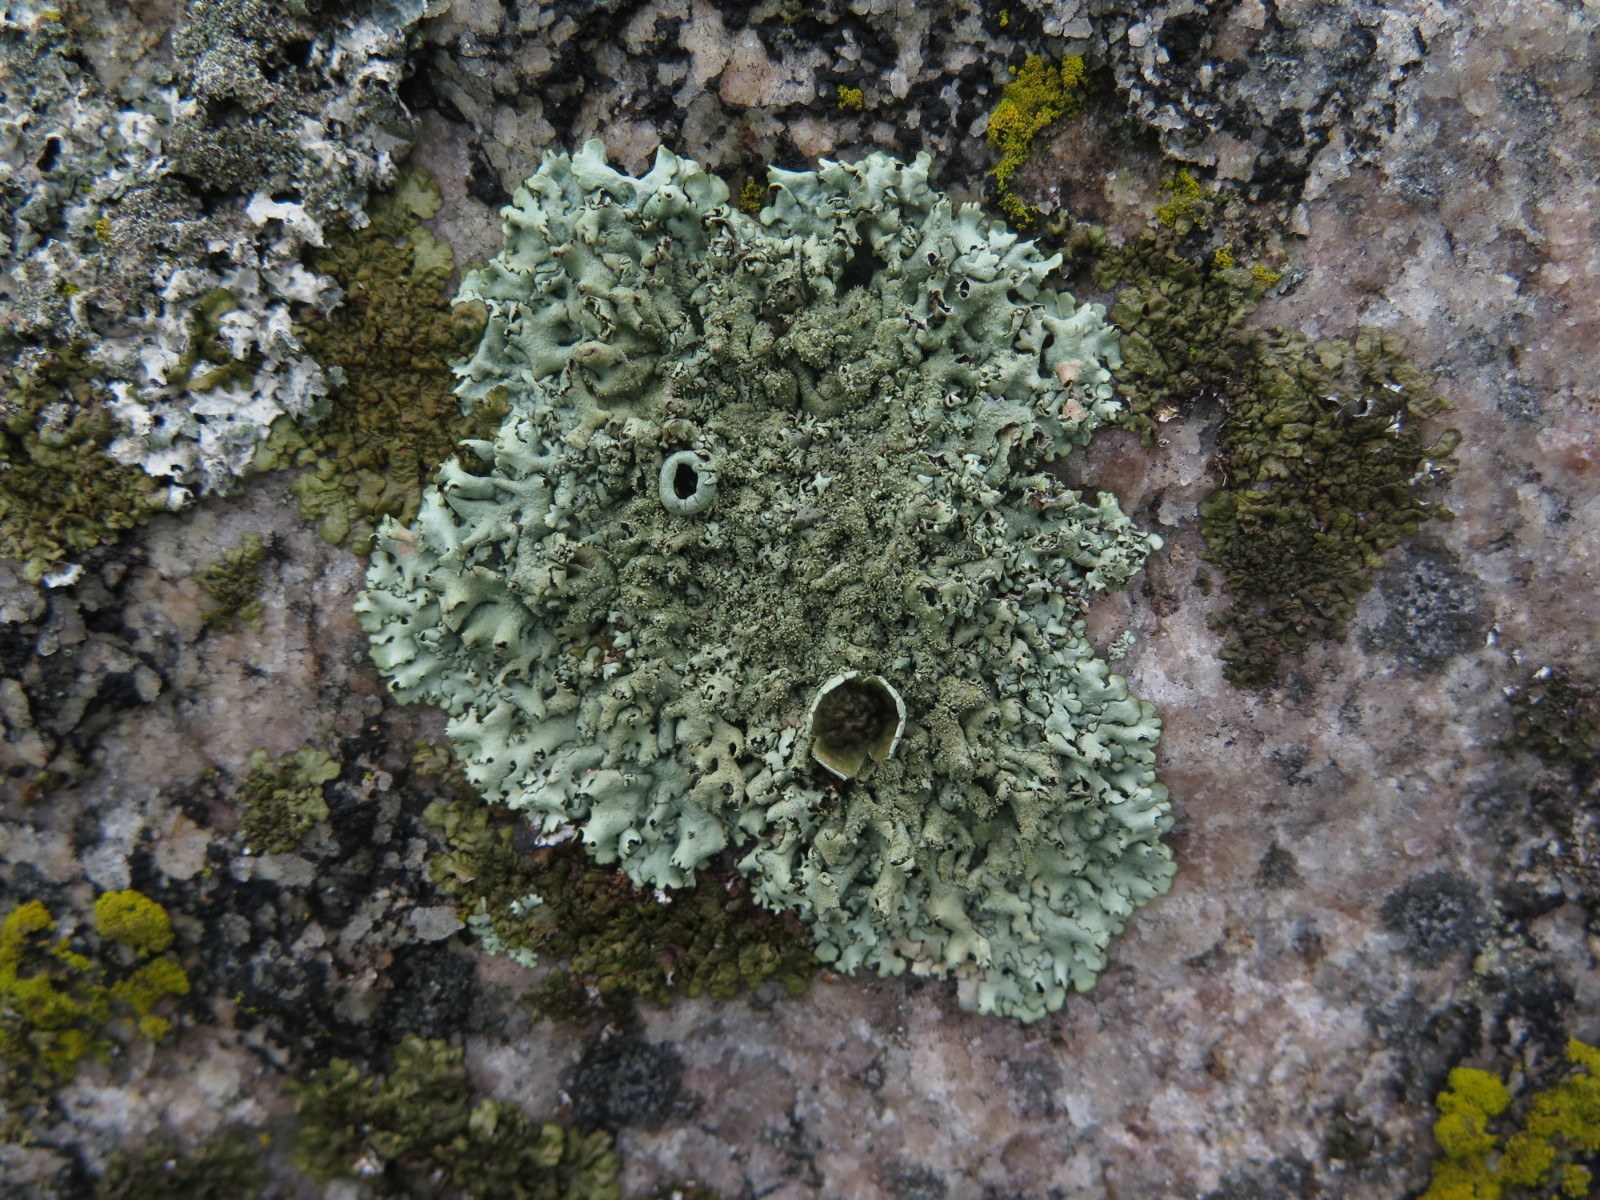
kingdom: Fungi
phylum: Ascomycota
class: Lecanoromycetes
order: Lecanorales
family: Parmeliaceae
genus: Xanthoparmelia
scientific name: Xanthoparmelia conspersa
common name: messing-skållav
